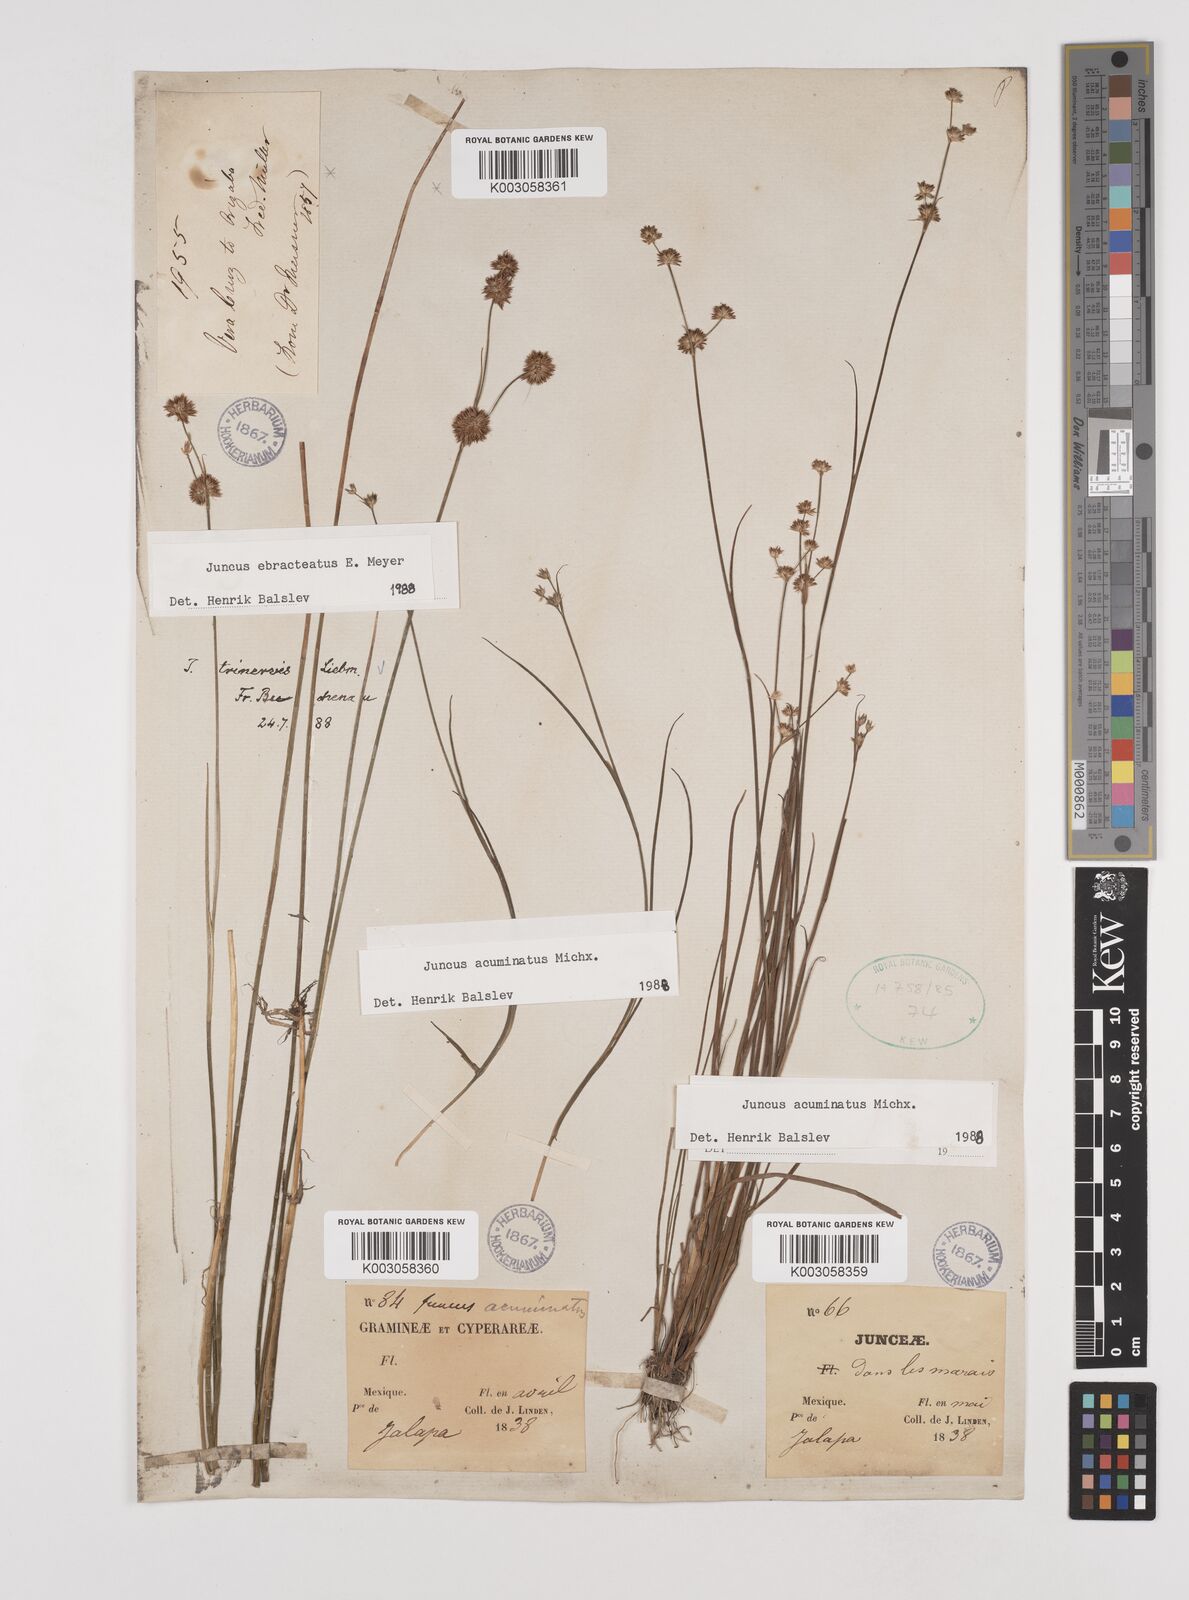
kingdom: Plantae
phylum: Tracheophyta
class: Liliopsida
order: Poales
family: Juncaceae
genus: Juncus
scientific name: Juncus acuminatus
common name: Knotty-leaved rush
